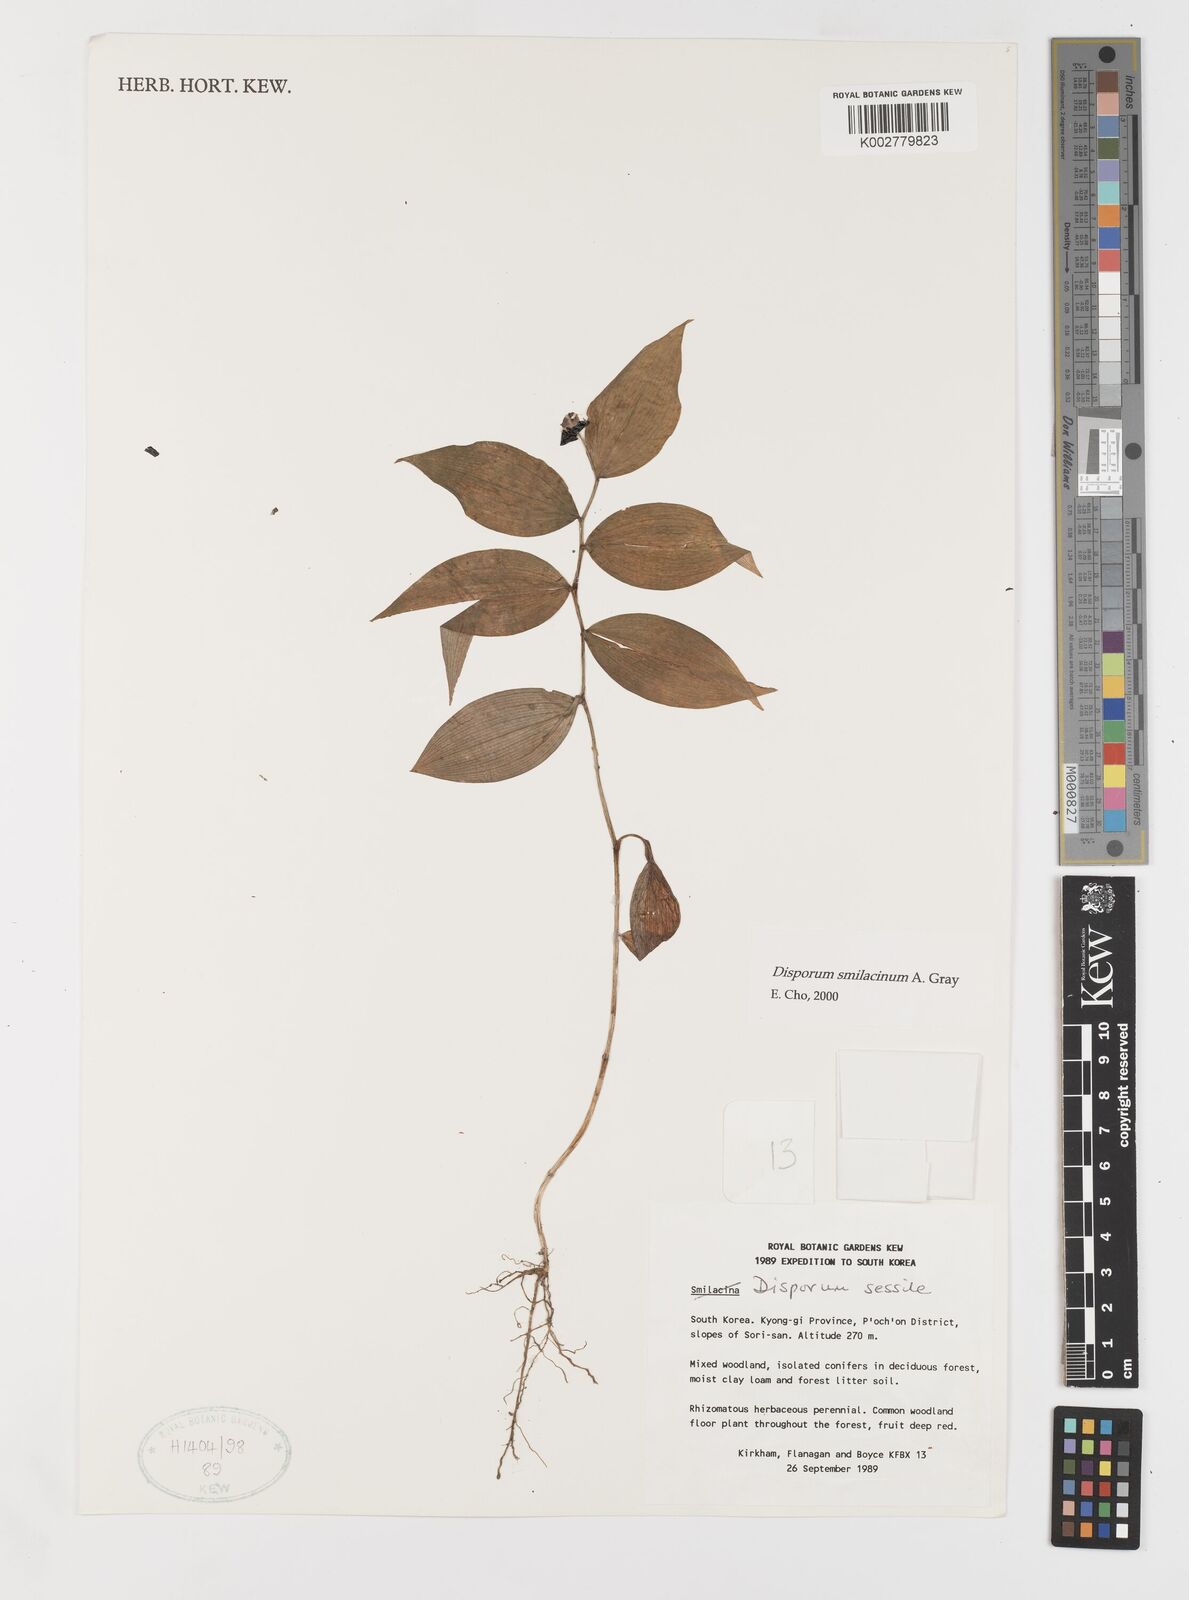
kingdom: Plantae
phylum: Tracheophyta
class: Liliopsida
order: Liliales
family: Colchicaceae
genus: Disporum
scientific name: Disporum smilacinum
